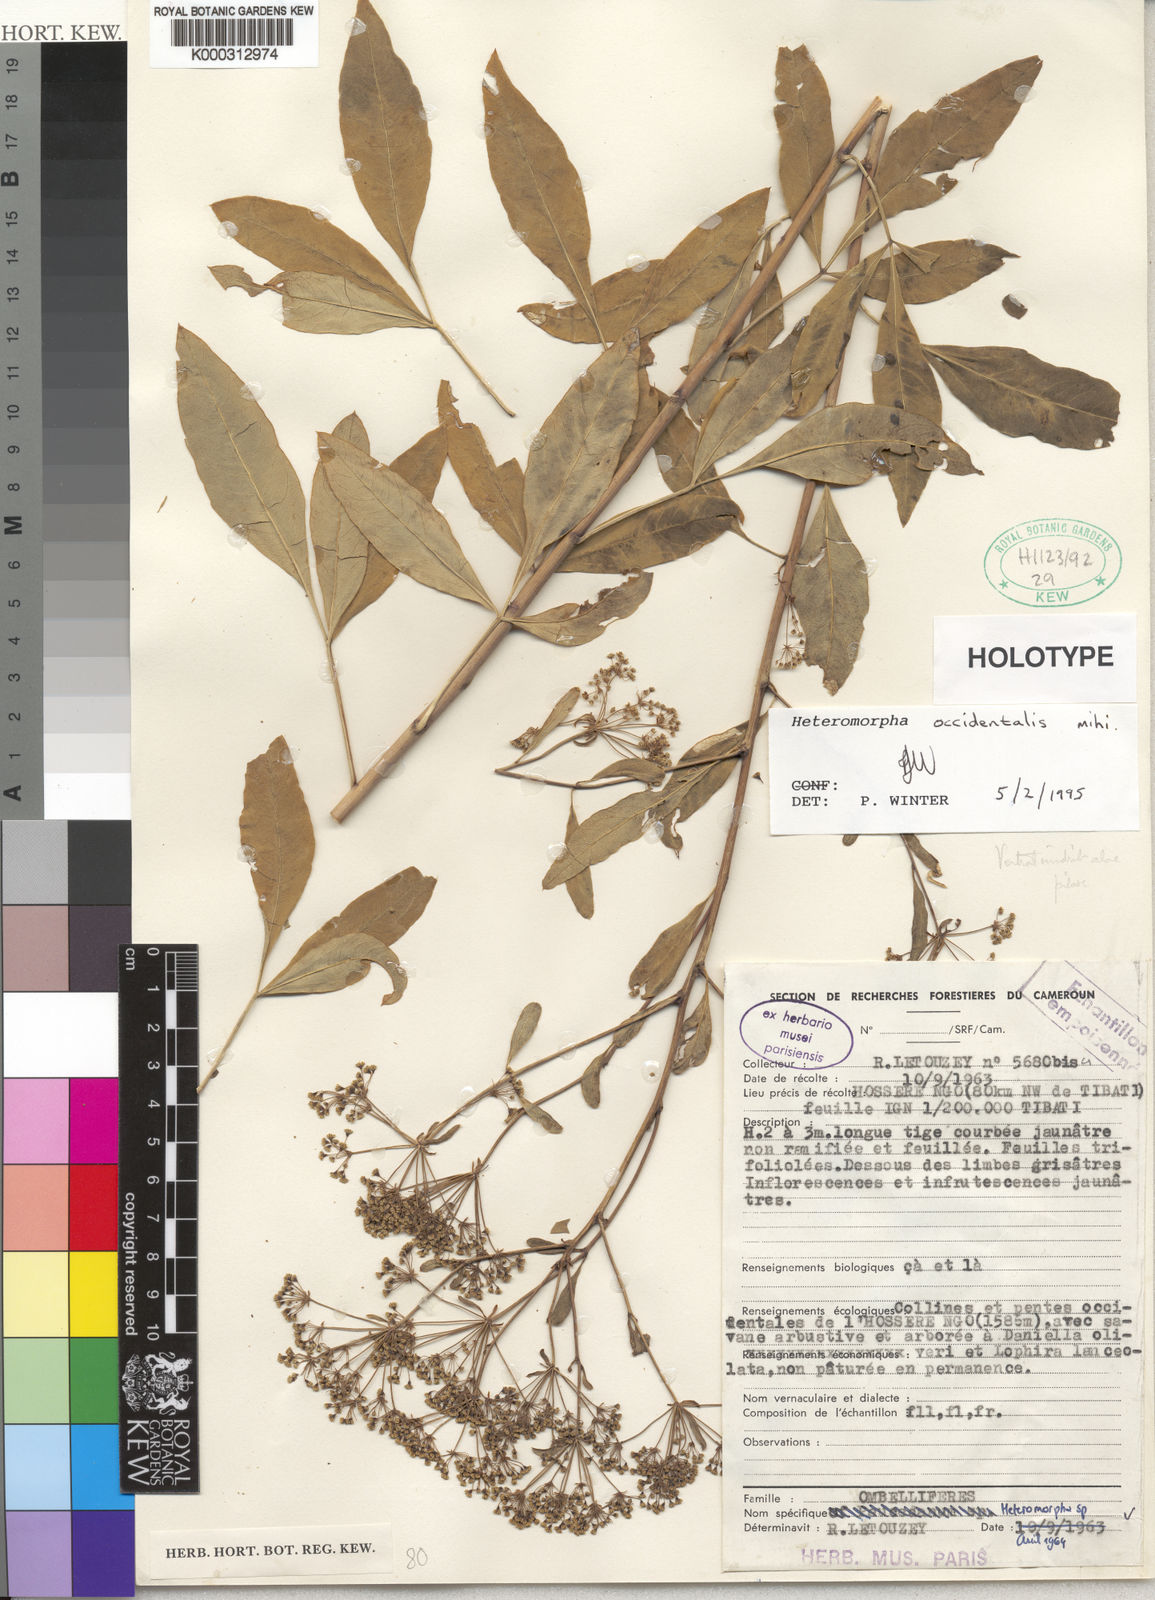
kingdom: Plantae
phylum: Tracheophyta
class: Magnoliopsida
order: Apiales
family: Apiaceae
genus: Heteromorpha
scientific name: Heteromorpha
